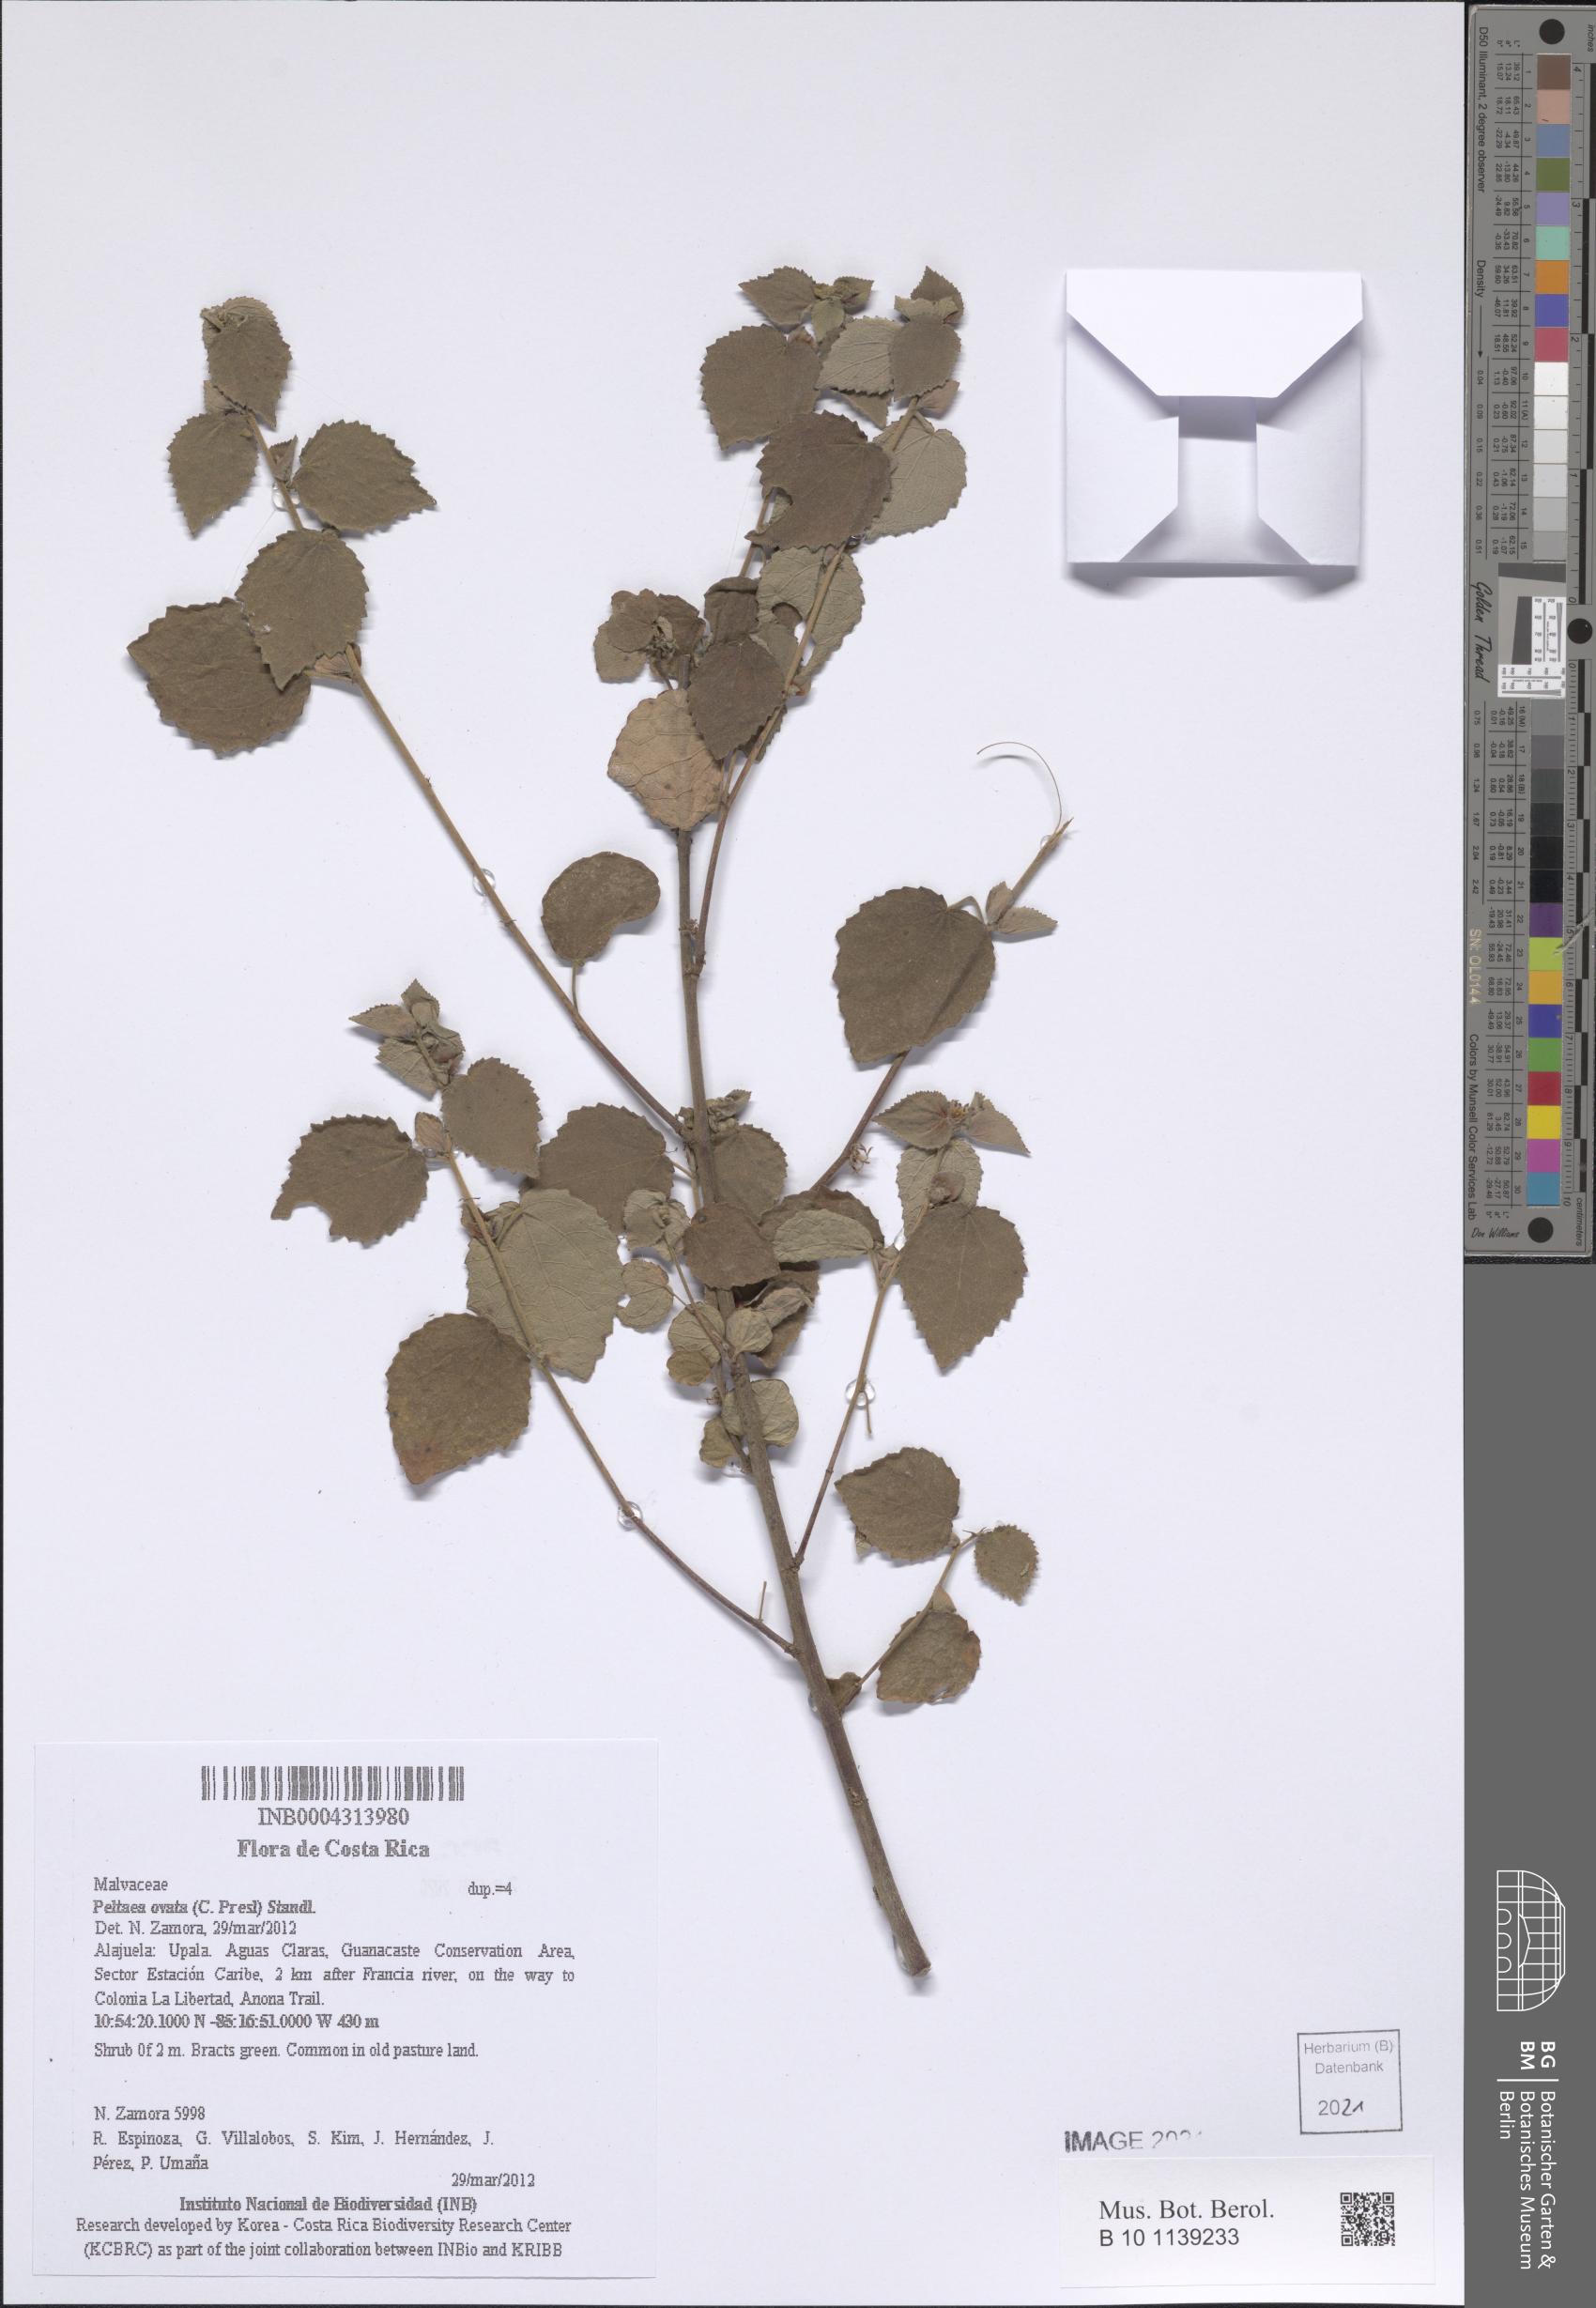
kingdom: Plantae
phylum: Tracheophyta
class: Magnoliopsida
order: Malvales
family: Malvaceae
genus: Peltaea
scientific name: Peltaea trinervis
